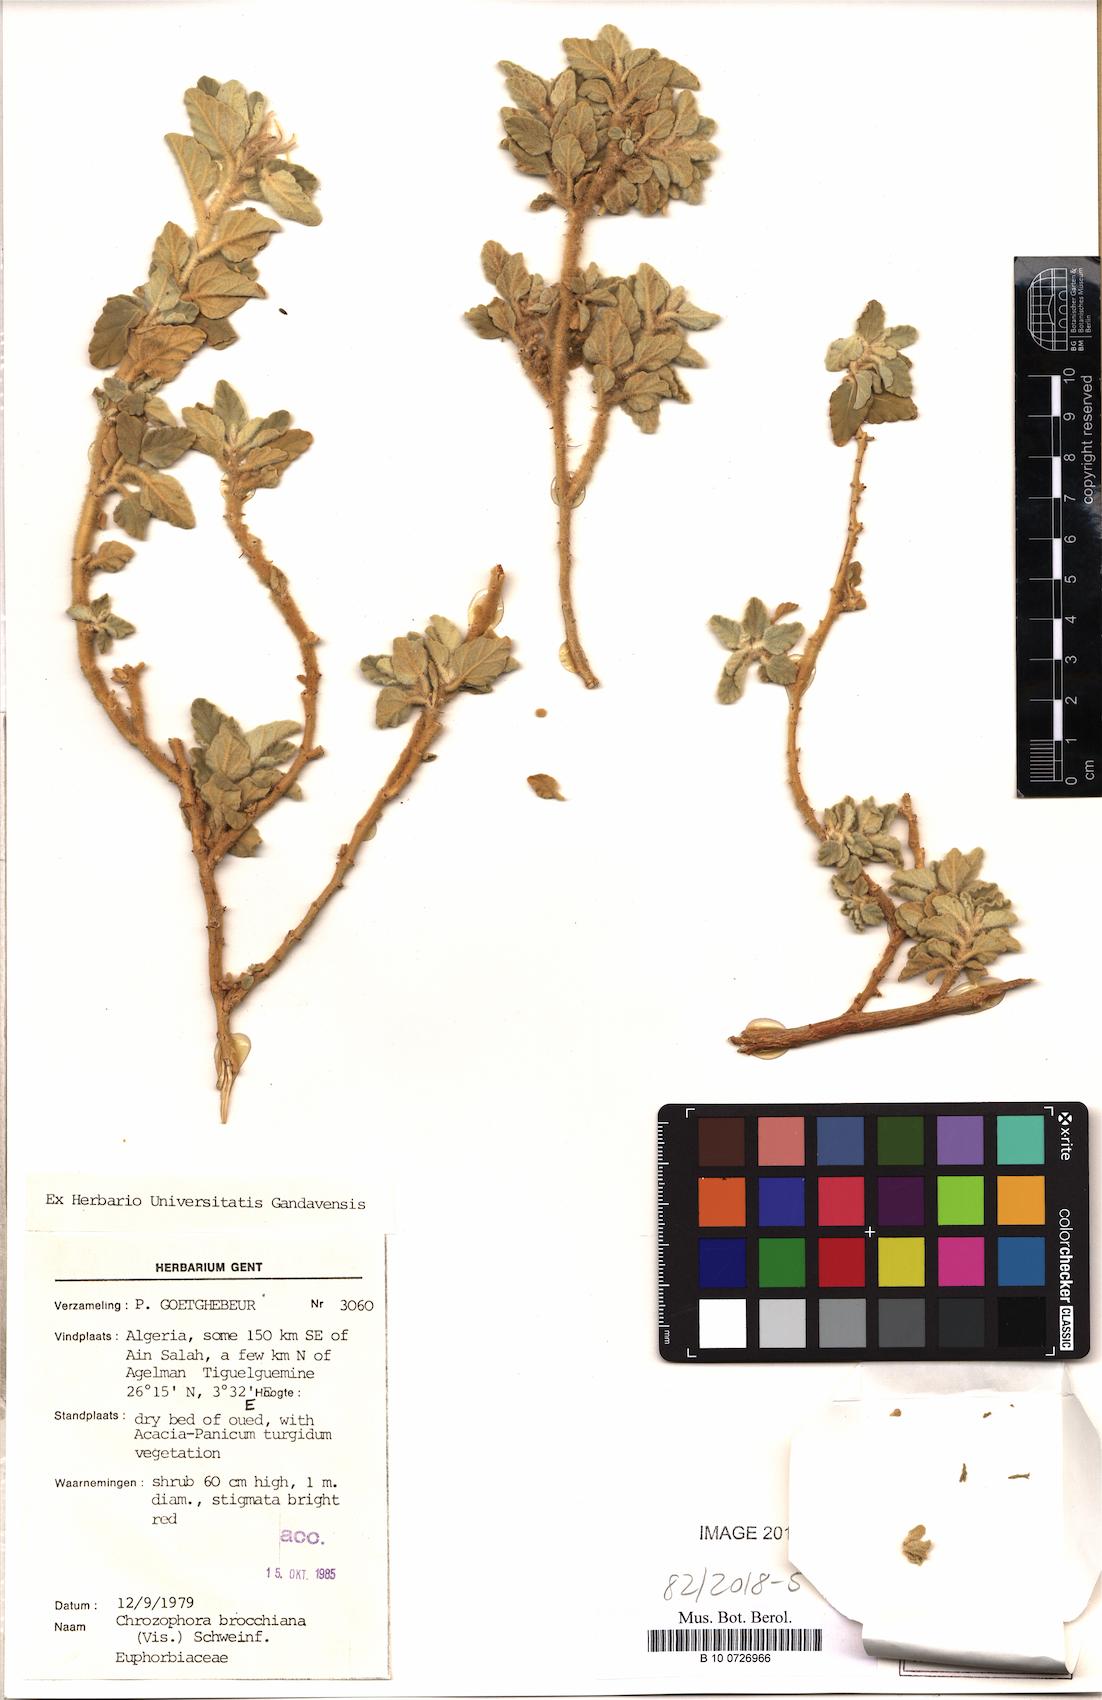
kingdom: Plantae
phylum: Tracheophyta
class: Magnoliopsida
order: Malpighiales
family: Euphorbiaceae
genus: Chrozophora
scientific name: Chrozophora brocchiana
